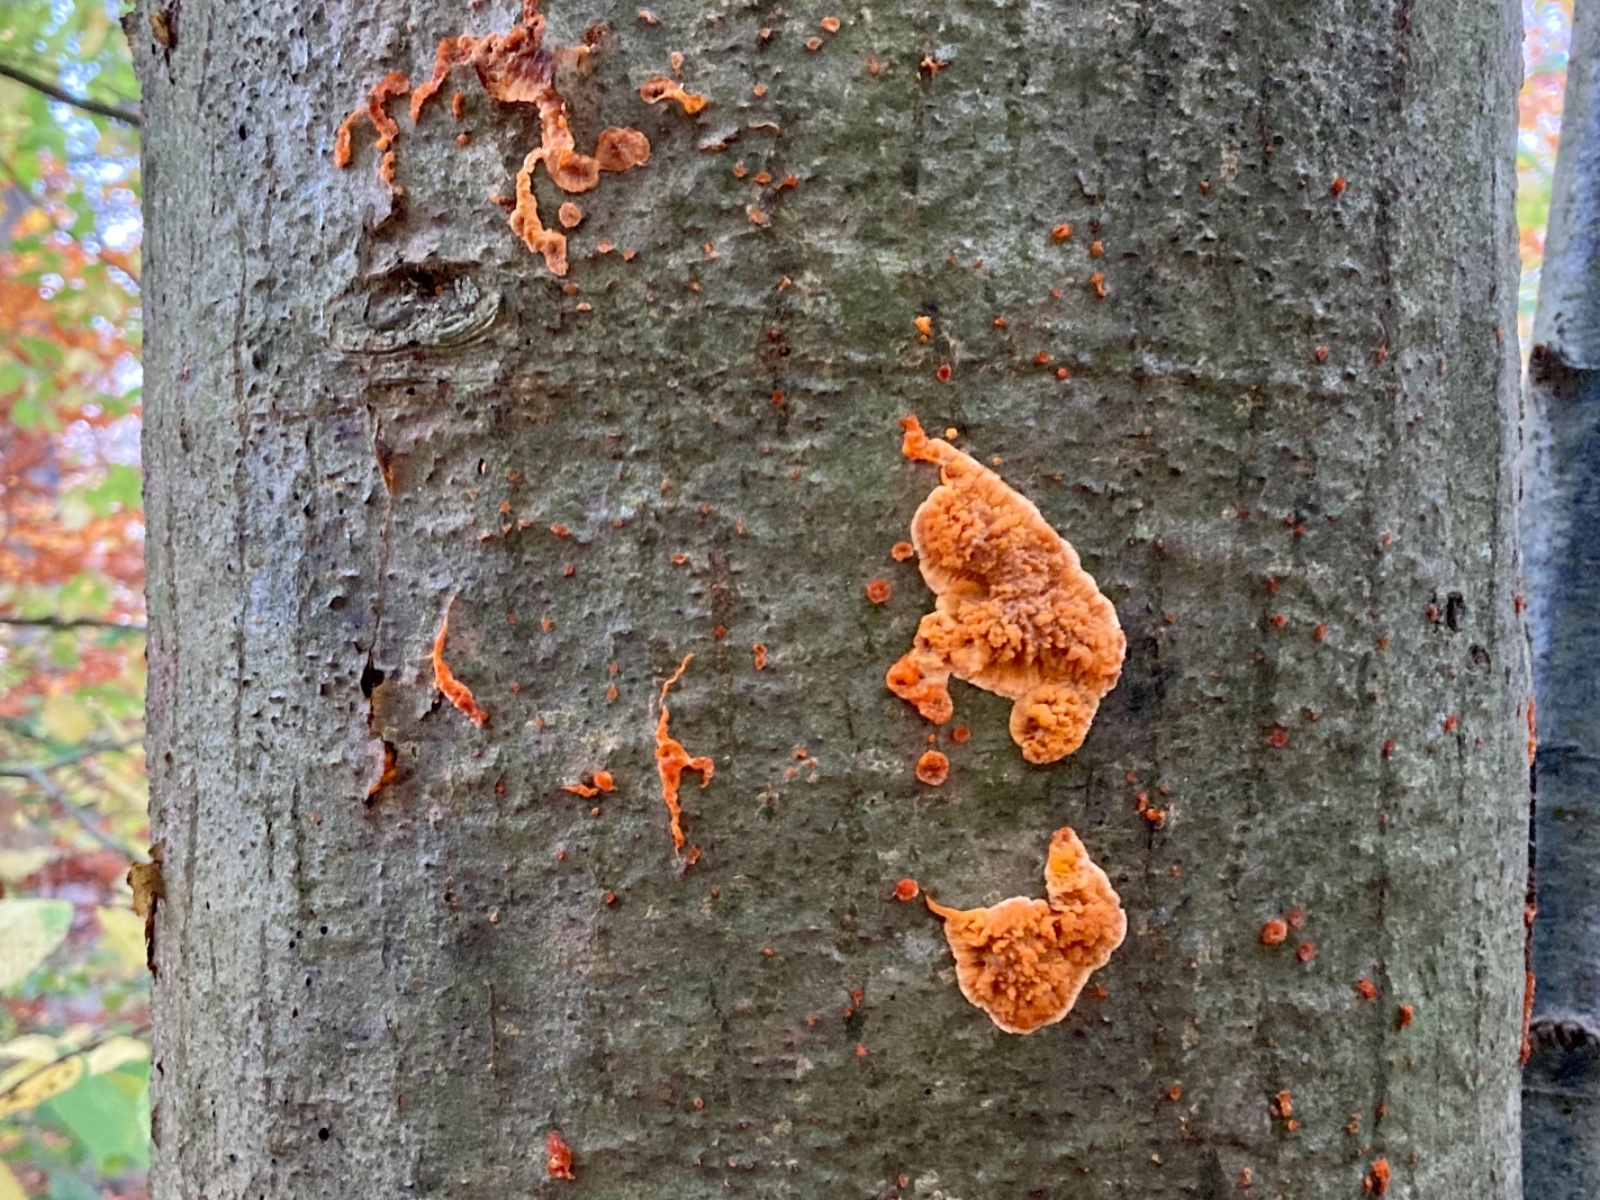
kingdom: Fungi
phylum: Basidiomycota
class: Agaricomycetes
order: Polyporales
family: Meruliaceae
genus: Phlebia
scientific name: Phlebia radiata
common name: stråle-åresvamp
